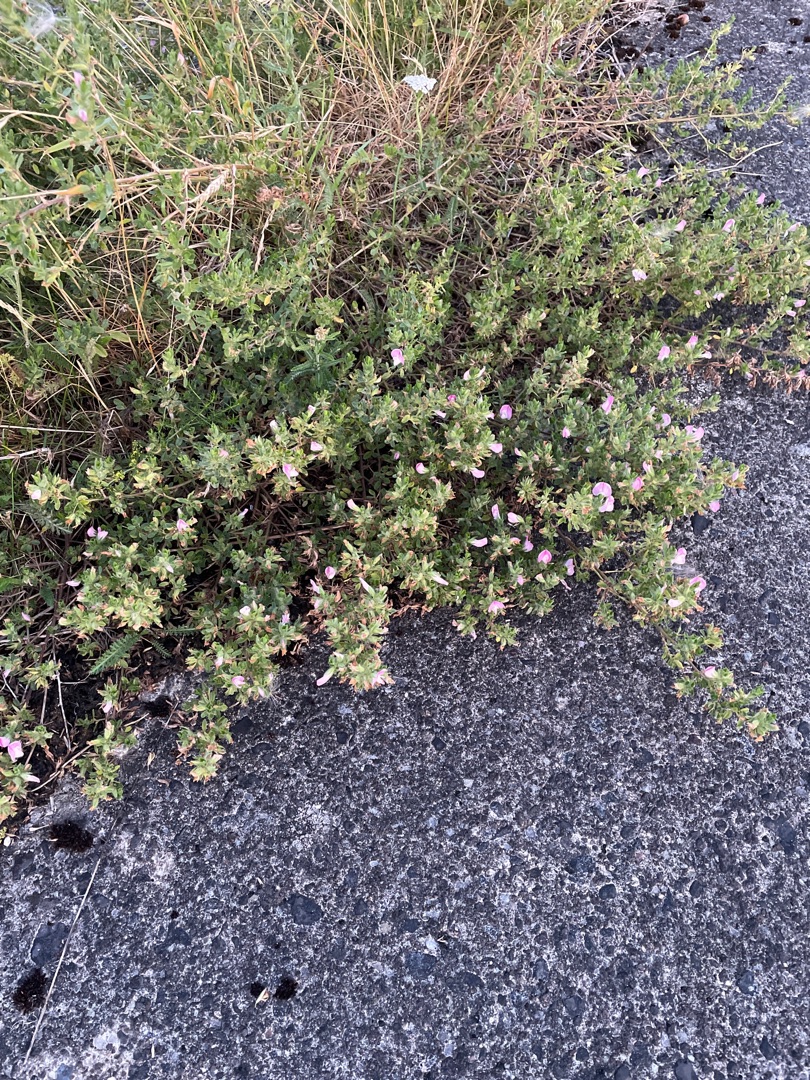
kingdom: Plantae
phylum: Tracheophyta
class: Magnoliopsida
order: Fabales
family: Fabaceae
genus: Ononis
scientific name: Ononis spinosa
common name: Mark-krageklo
